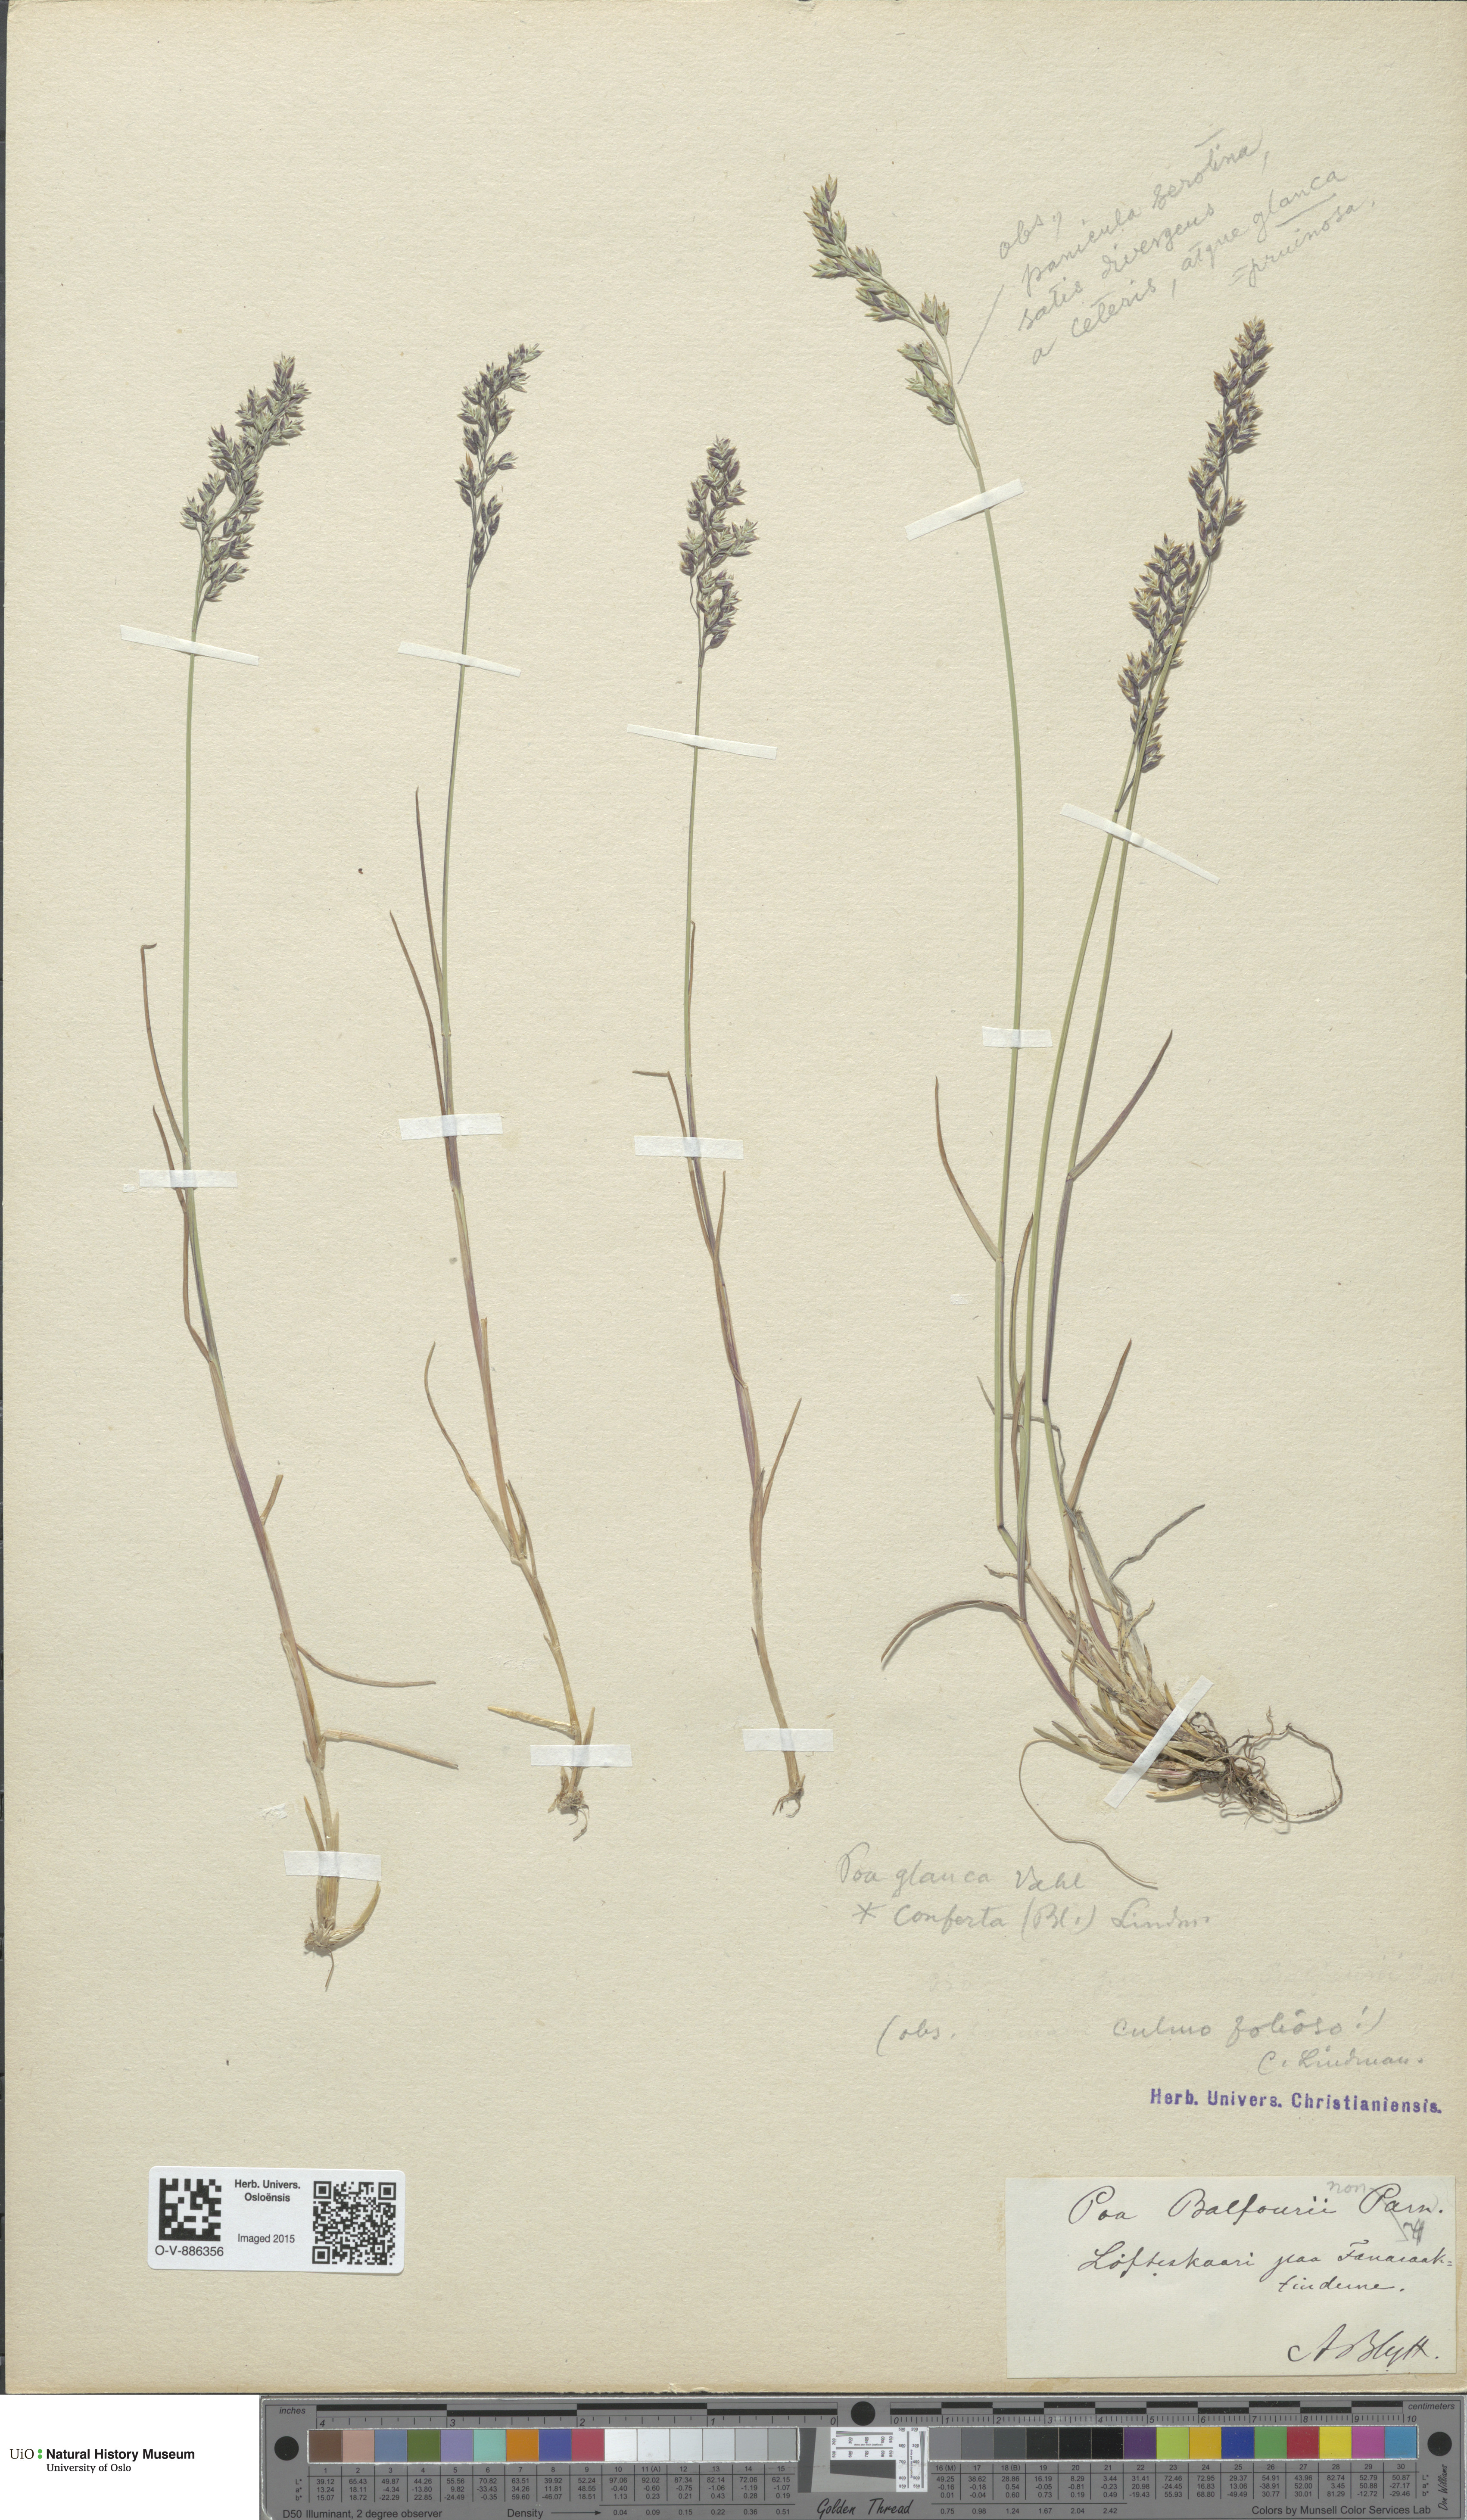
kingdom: Plantae
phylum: Tracheophyta
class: Liliopsida
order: Poales
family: Poaceae
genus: Poa
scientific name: Poa glauca
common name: Glaucous bluegrass
